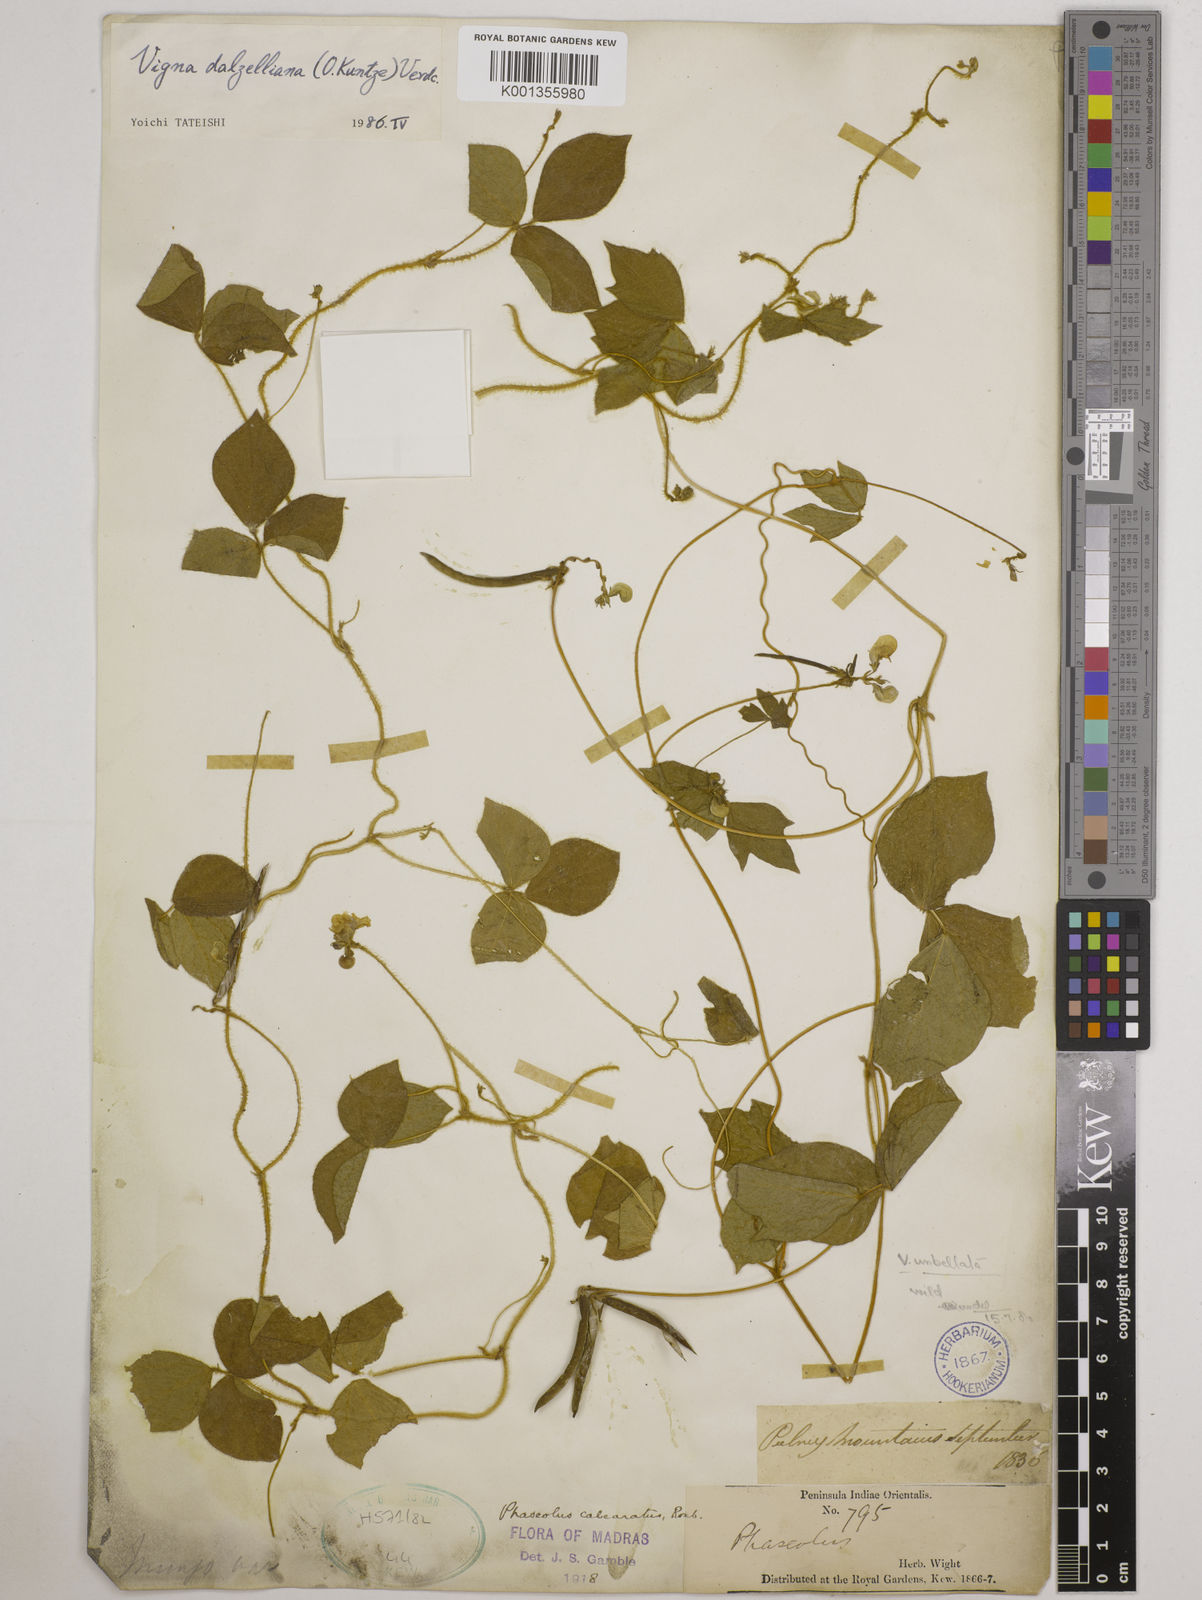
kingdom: Plantae
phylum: Tracheophyta
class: Magnoliopsida
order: Fabales
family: Fabaceae
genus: Vigna
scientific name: Vigna dalzelliana
